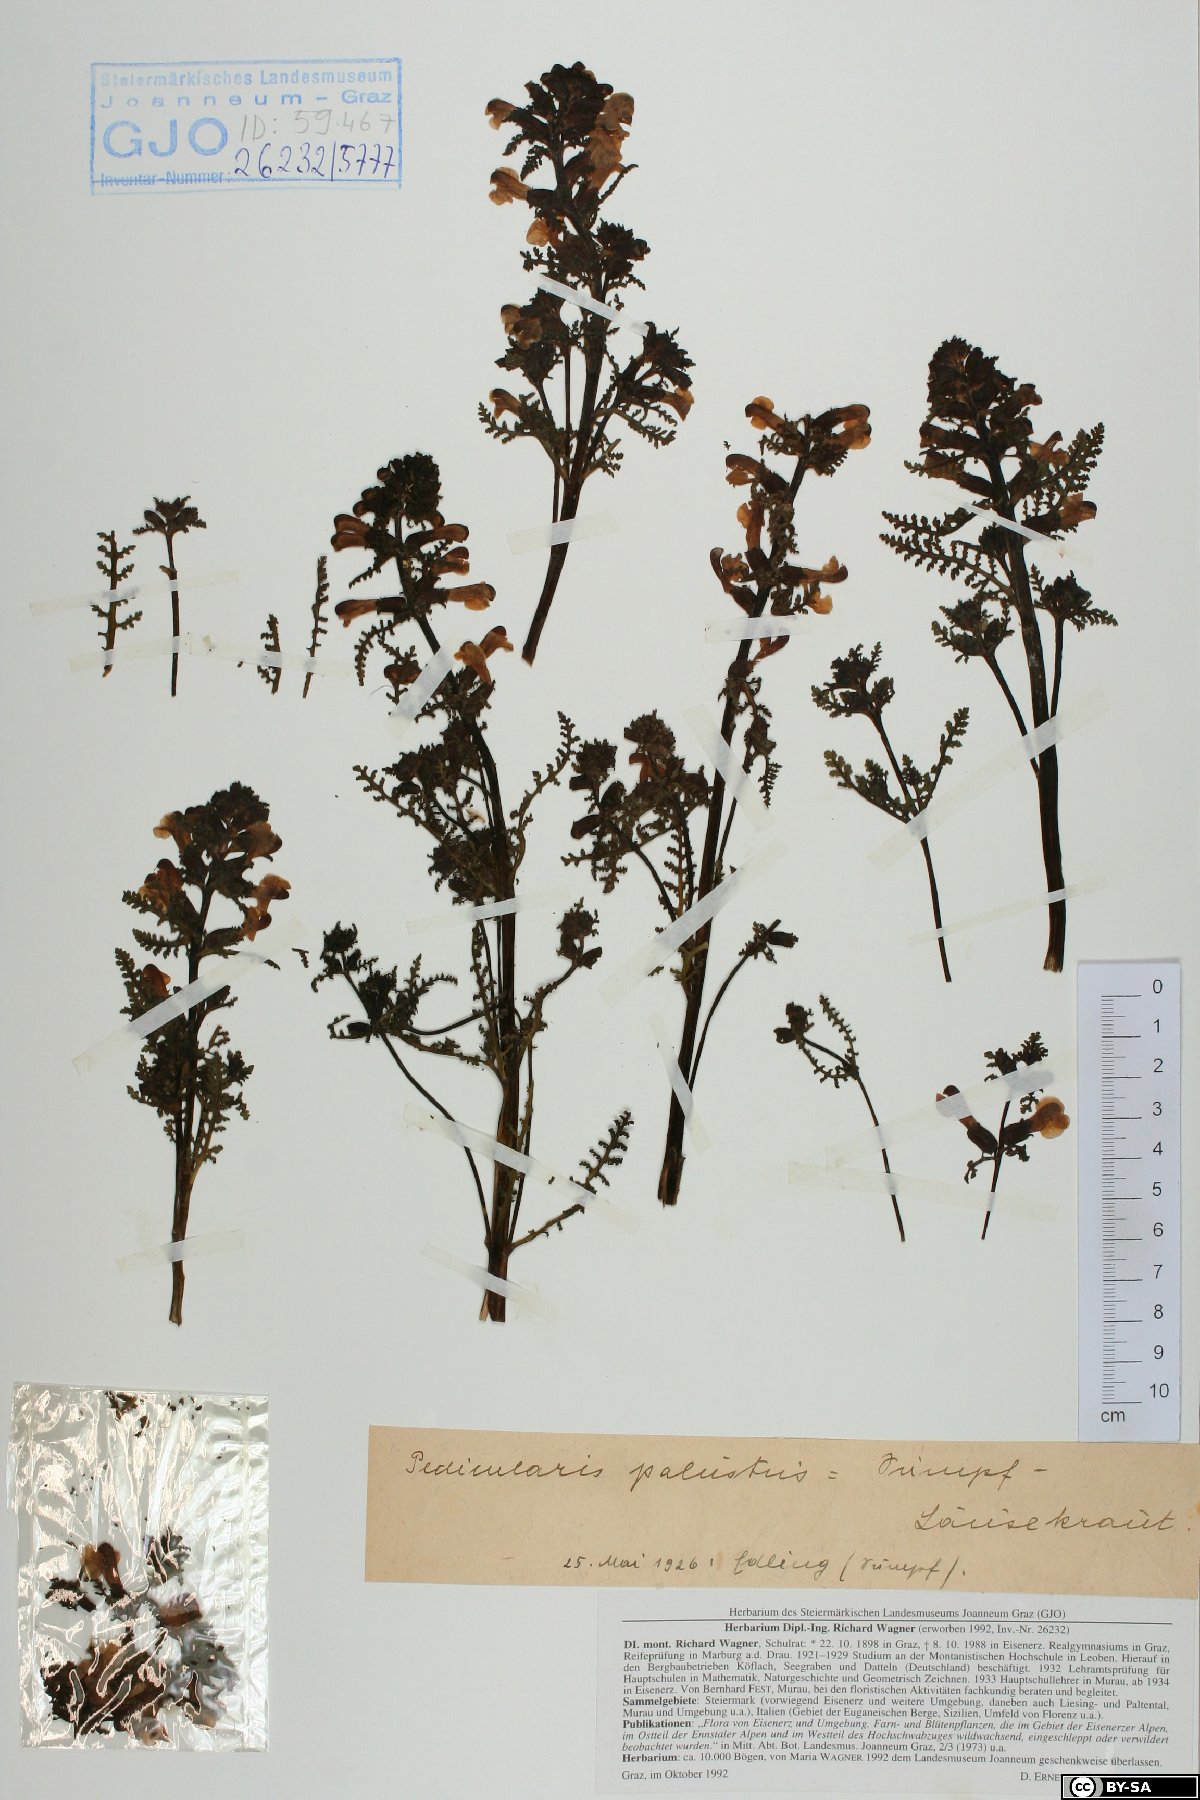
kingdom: Plantae
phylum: Tracheophyta
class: Magnoliopsida
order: Lamiales
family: Orobanchaceae
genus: Pedicularis
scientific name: Pedicularis palustris
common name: Marsh lousewort
